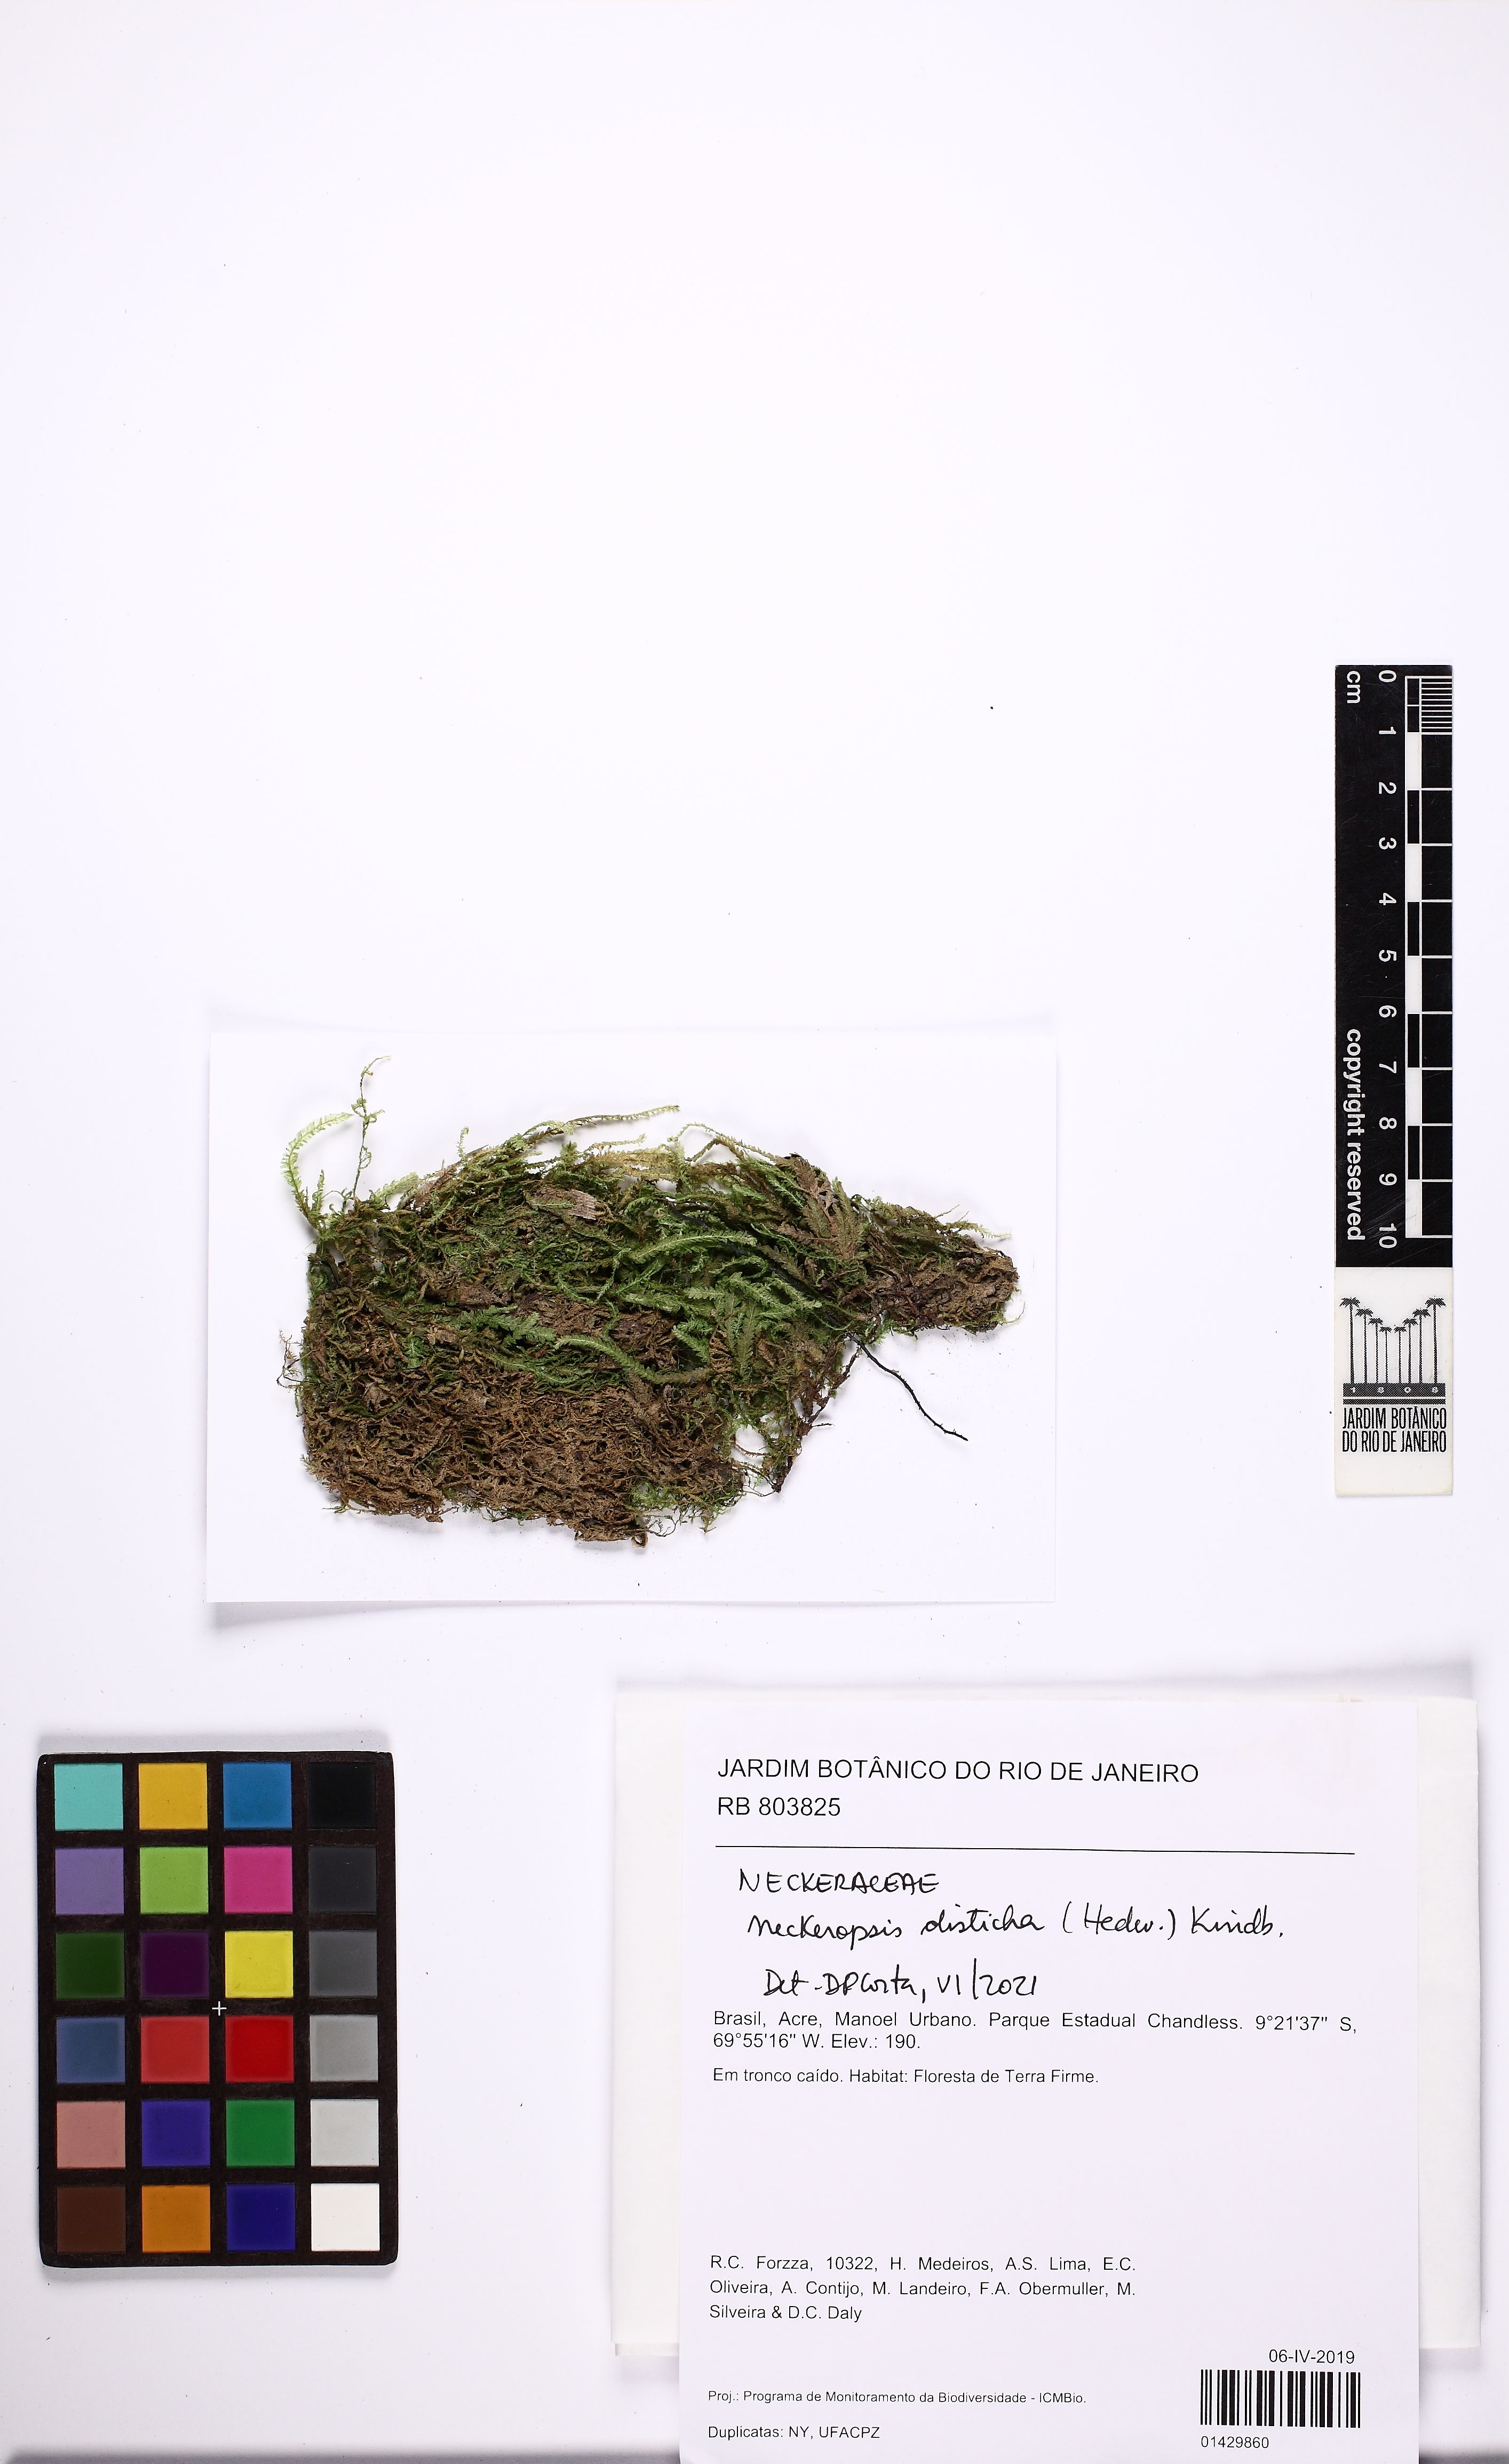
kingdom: Plantae
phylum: Bryophyta
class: Bryopsida
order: Hypnales
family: Neckeraceae
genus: Neckeropsis
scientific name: Neckeropsis disticha
